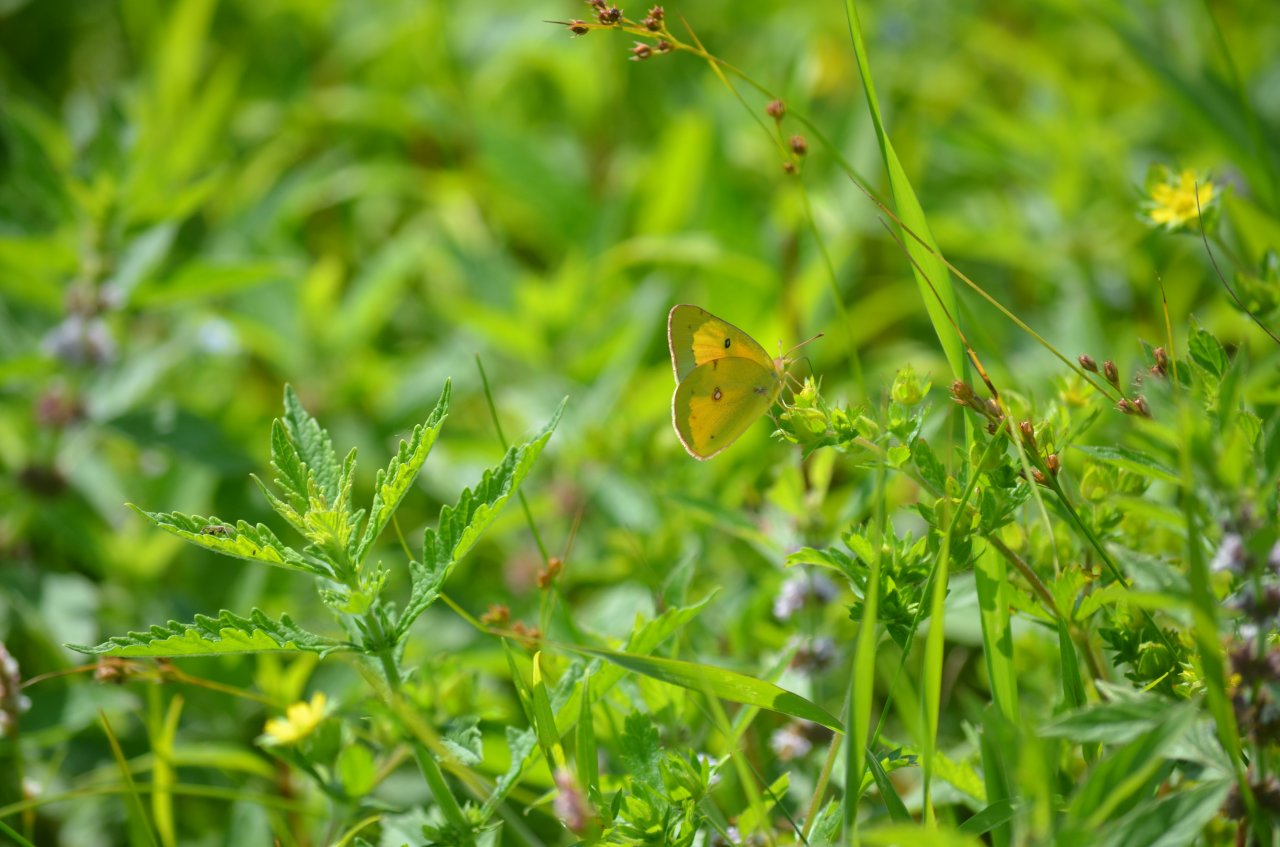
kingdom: Animalia
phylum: Arthropoda
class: Insecta
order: Lepidoptera
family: Pieridae
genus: Colias
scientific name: Colias eurytheme
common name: Orange Sulphur
